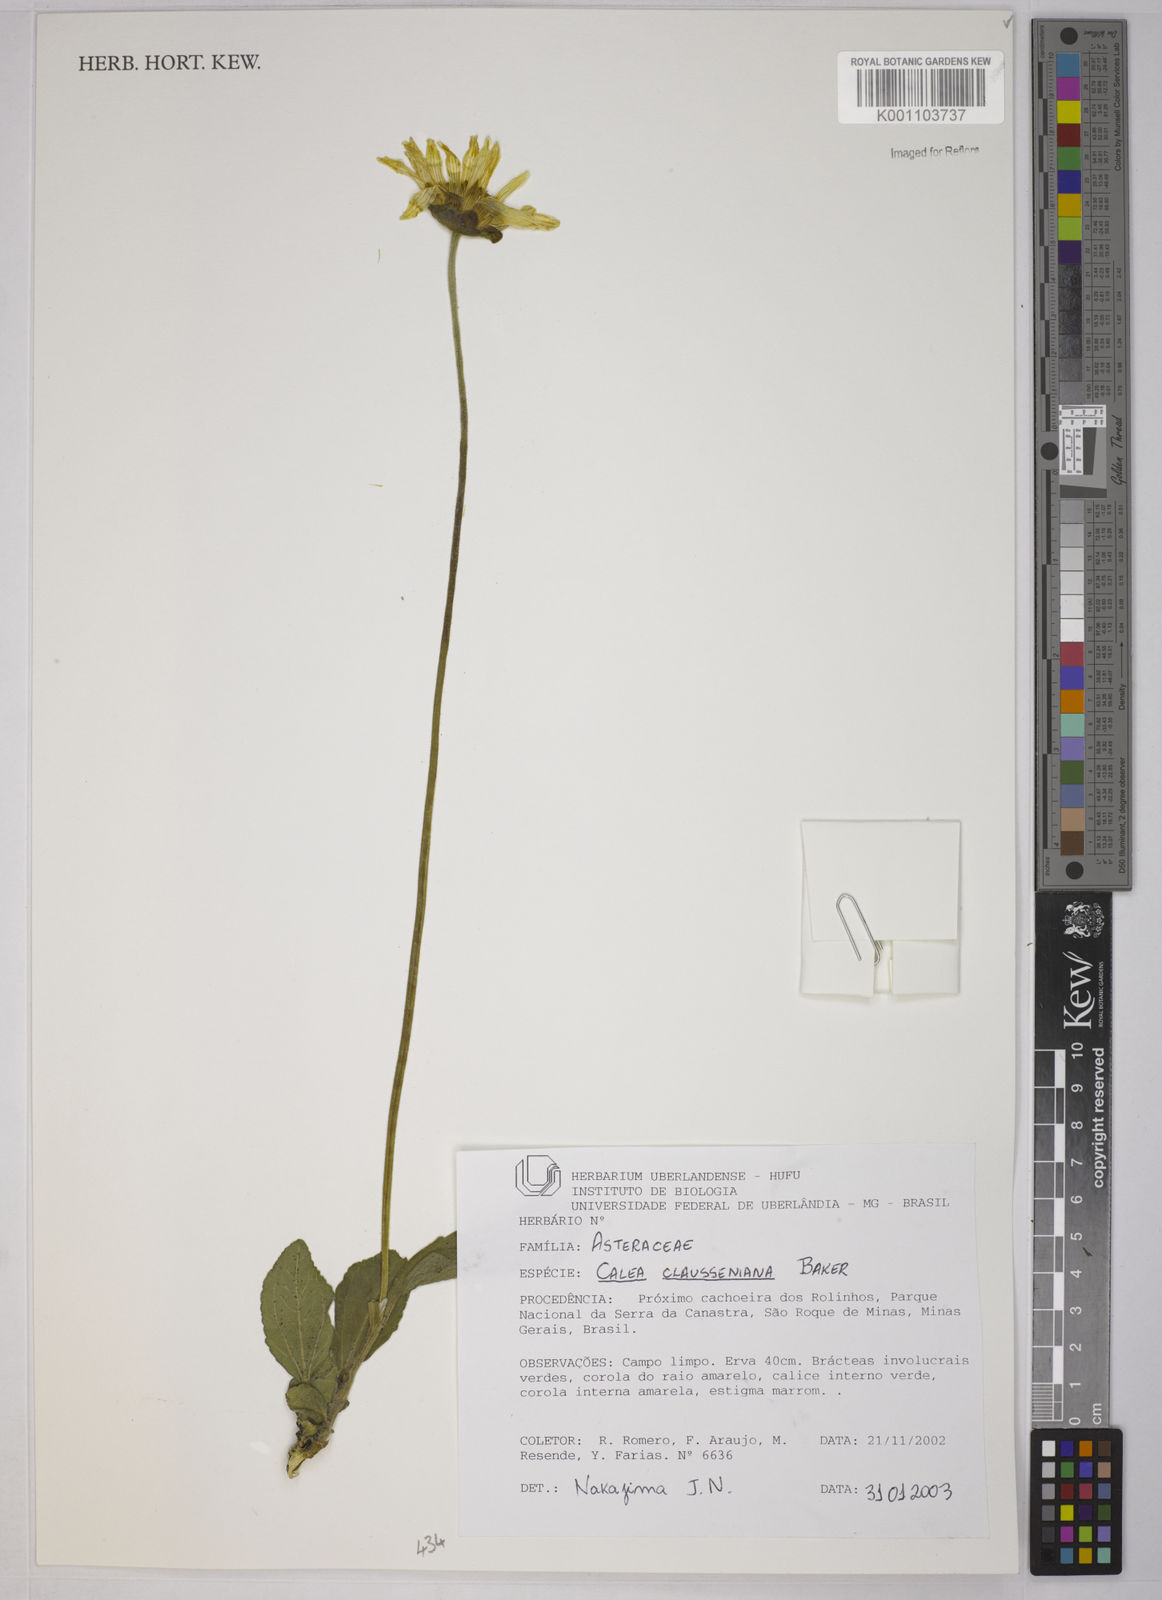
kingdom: Plantae
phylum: Tracheophyta
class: Magnoliopsida
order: Asterales
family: Asteraceae
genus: Calea
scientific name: Calea clausseniana
